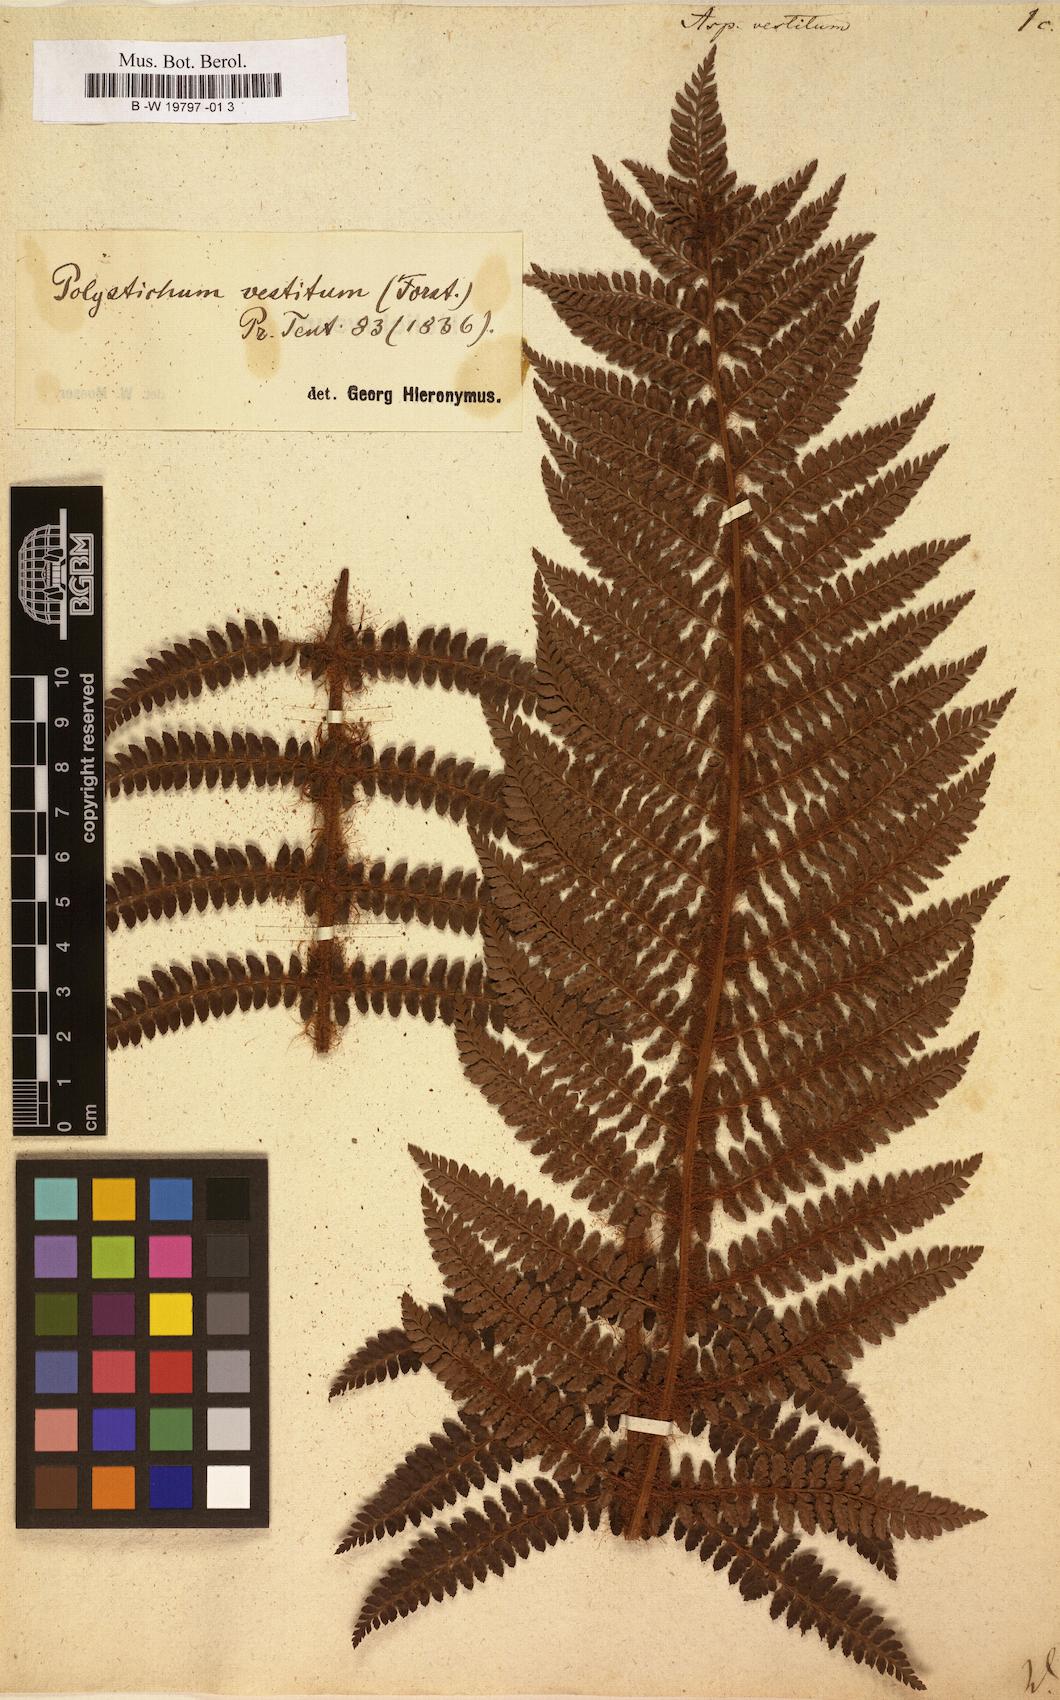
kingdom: Plantae
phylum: Tracheophyta
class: Polypodiopsida
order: Polypodiales
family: Dryopteridaceae
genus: Polystichum
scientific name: Polystichum vestitum
